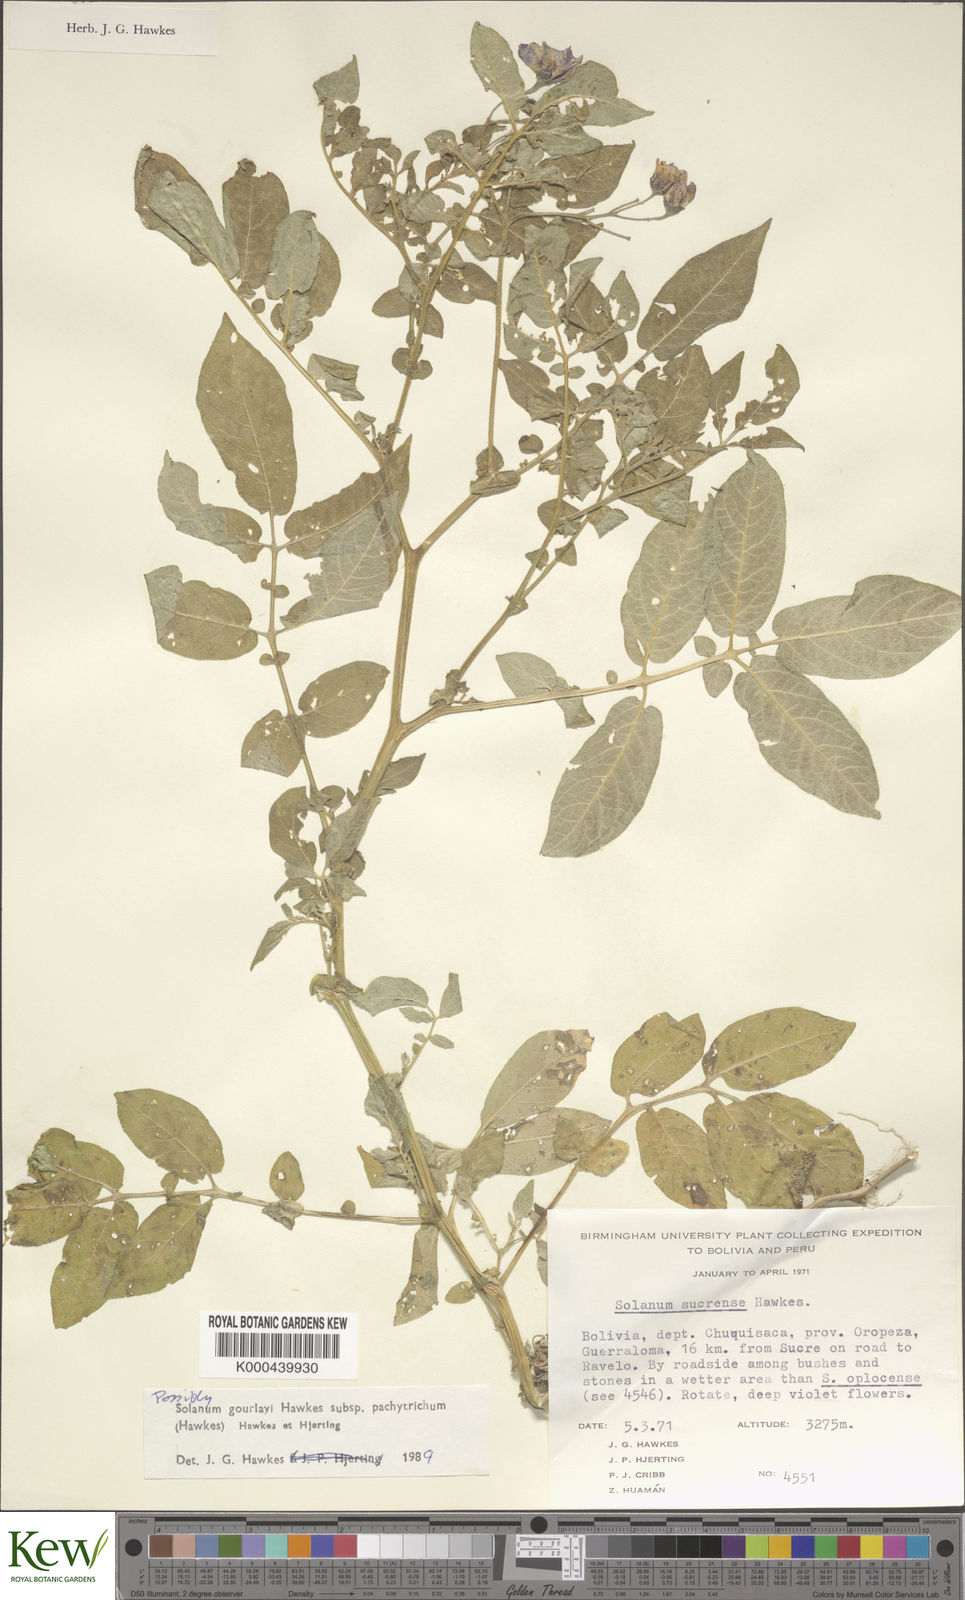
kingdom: Plantae
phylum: Tracheophyta
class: Magnoliopsida
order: Solanales
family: Solanaceae
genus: Solanum
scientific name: Solanum brevicaule
